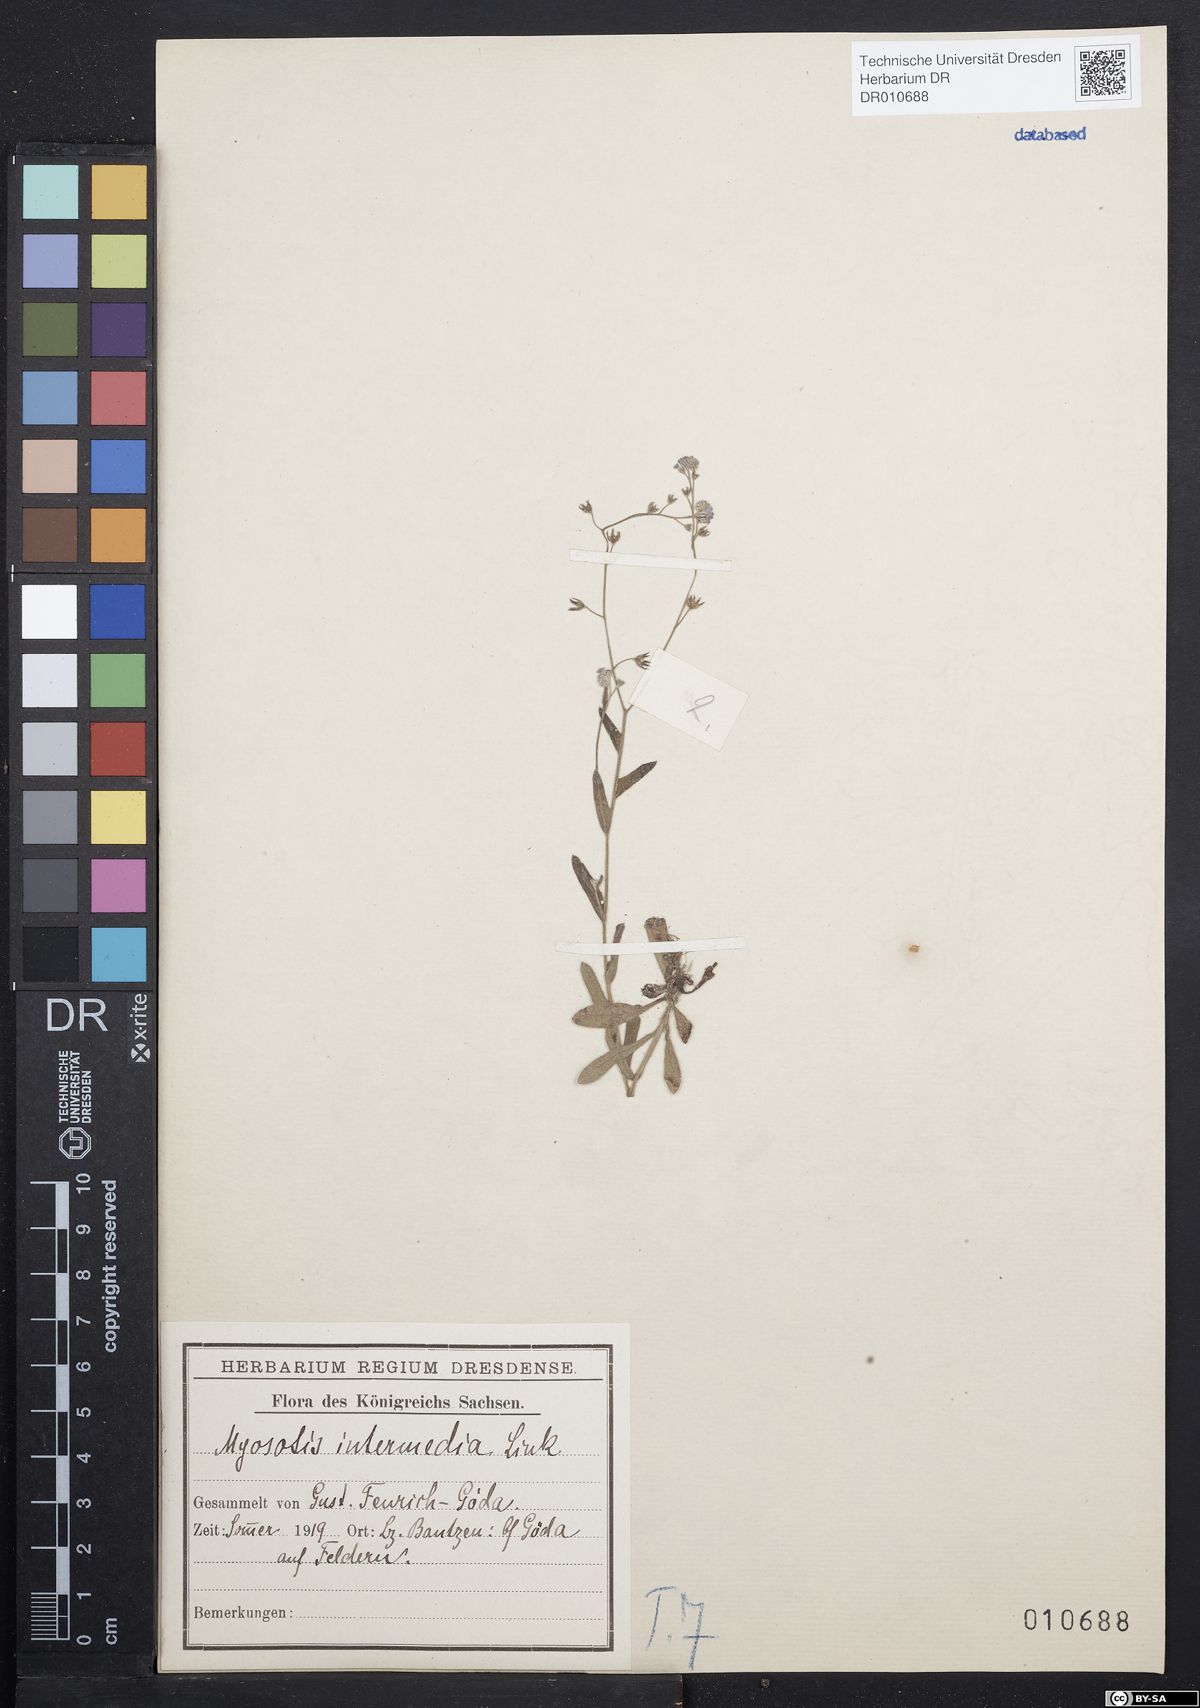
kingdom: Plantae
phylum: Tracheophyta
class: Magnoliopsida
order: Boraginales
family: Boraginaceae
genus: Myosotis
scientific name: Myosotis arvensis
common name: Field forget-me-not
